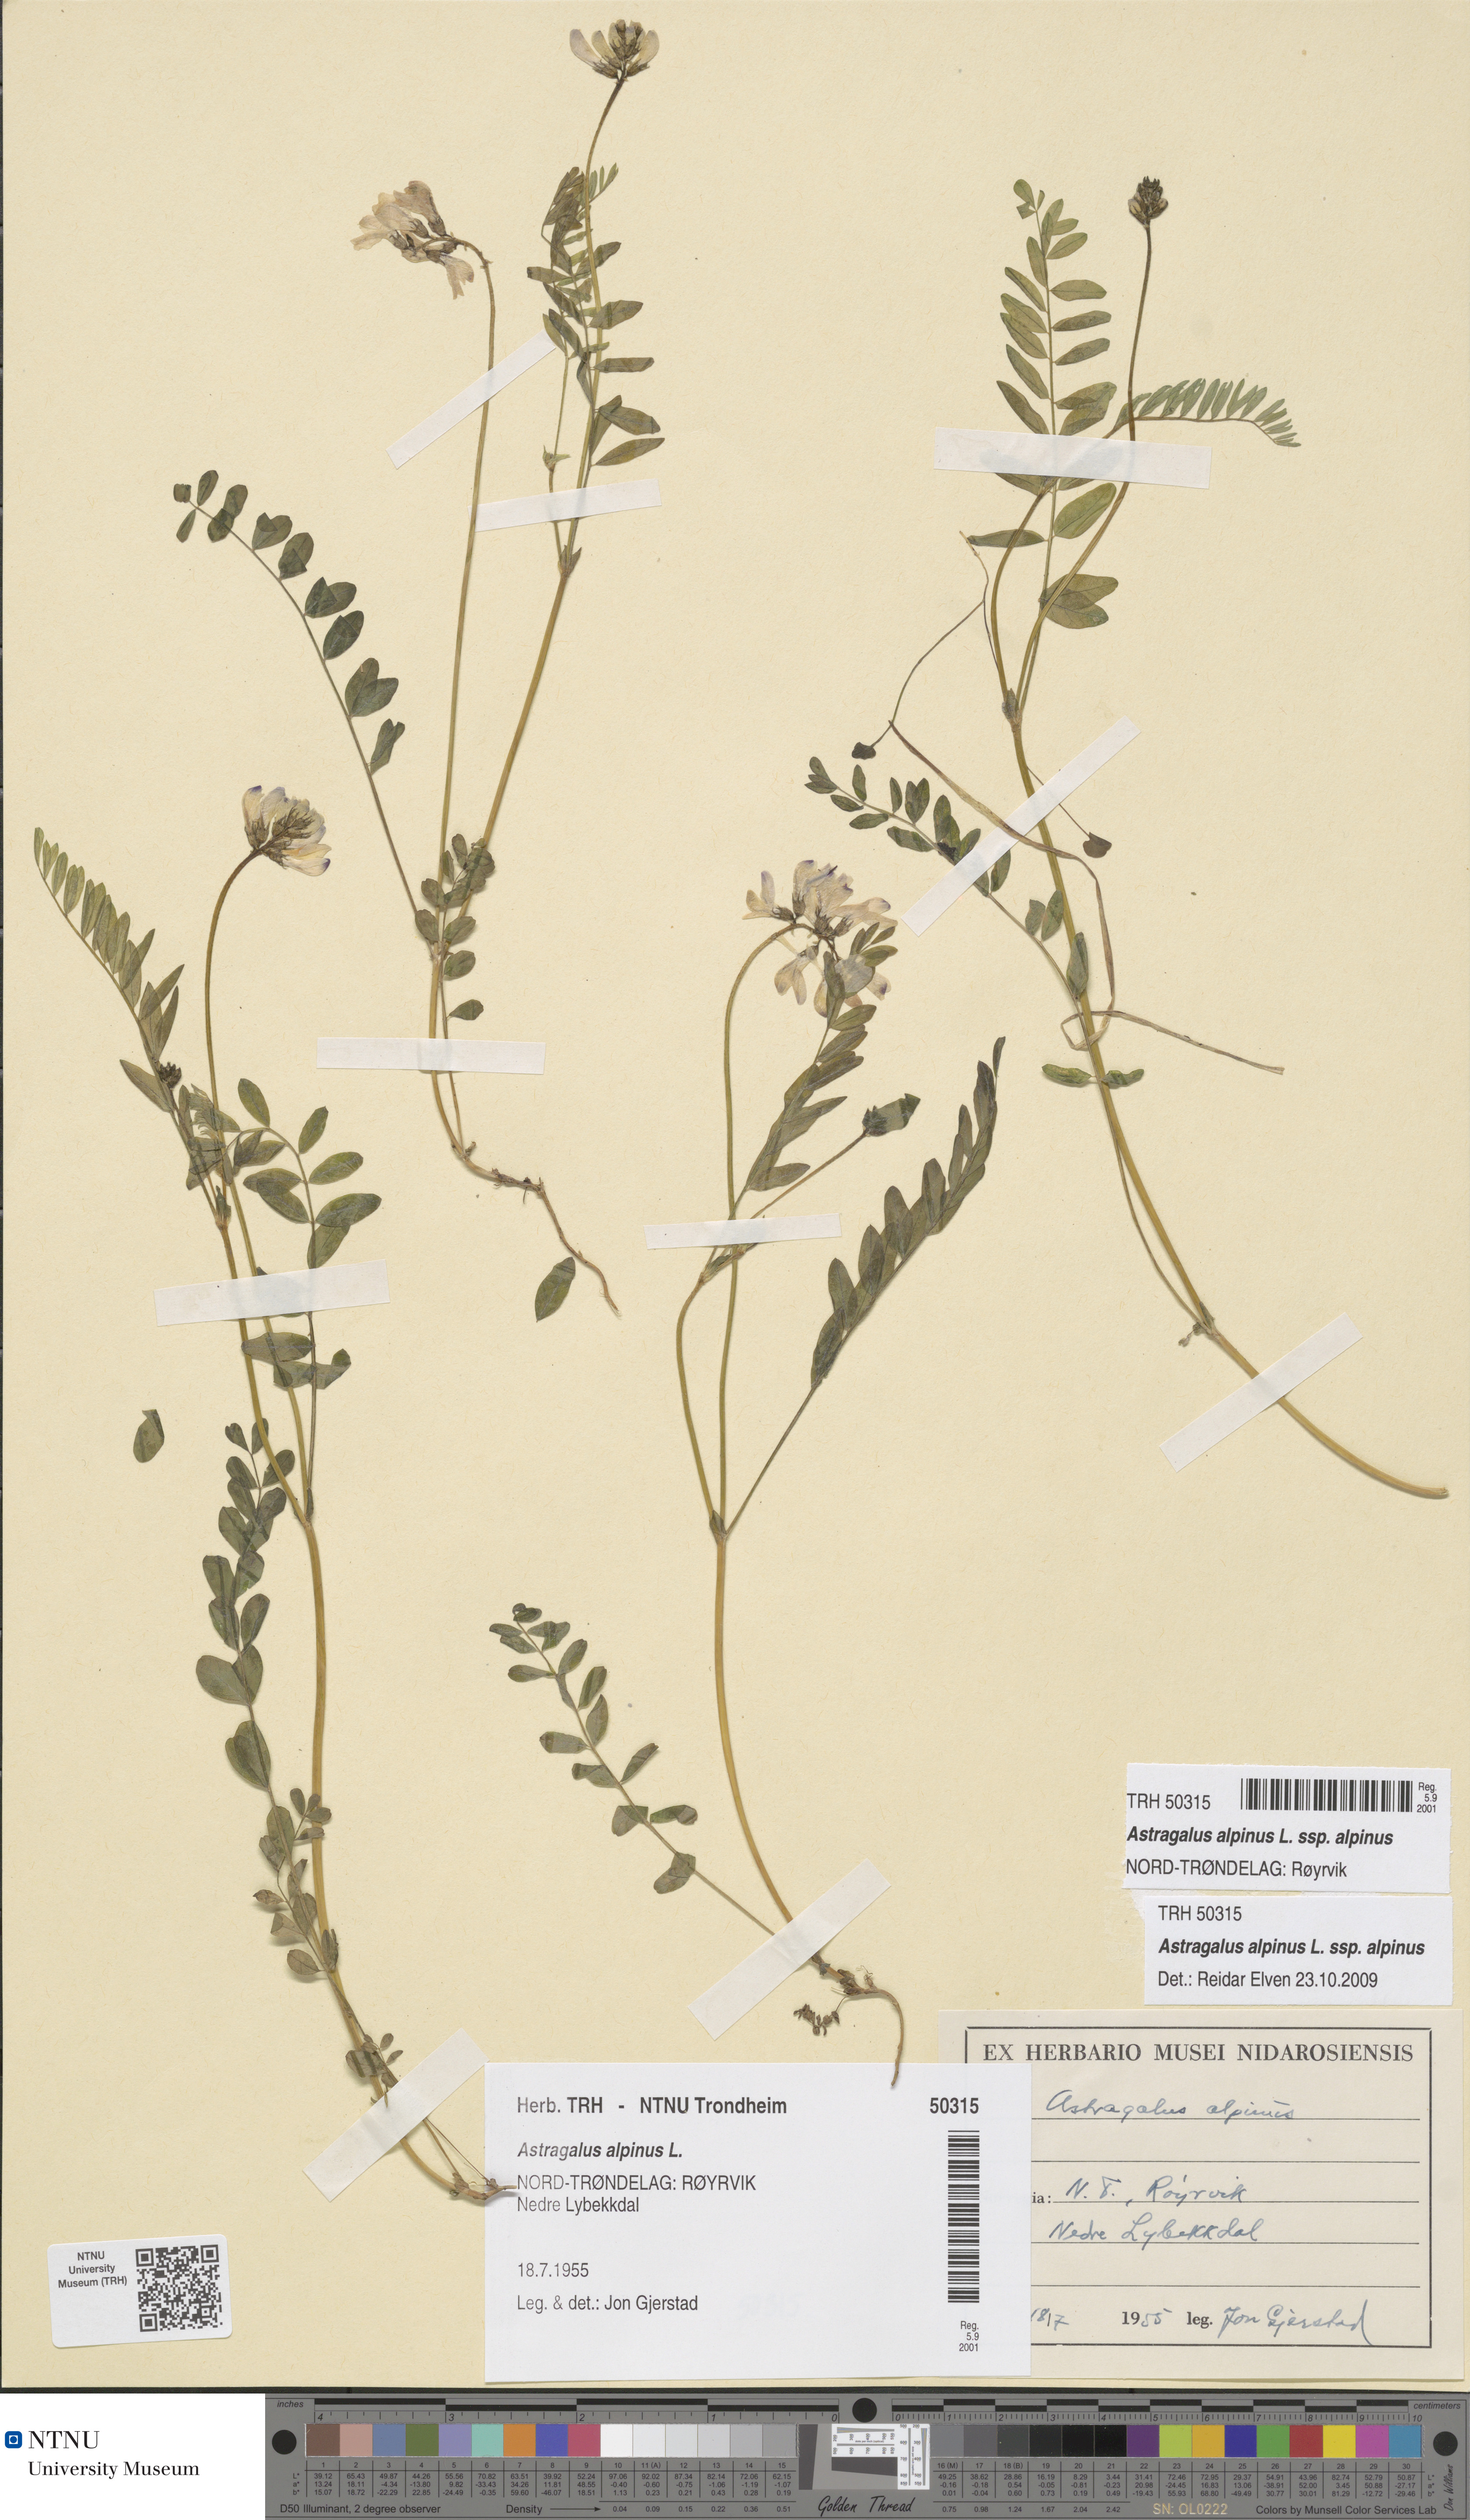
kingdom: Plantae
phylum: Tracheophyta
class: Magnoliopsida
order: Fabales
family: Fabaceae
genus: Astragalus
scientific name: Astragalus alpinus
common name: Alpine milk-vetch
